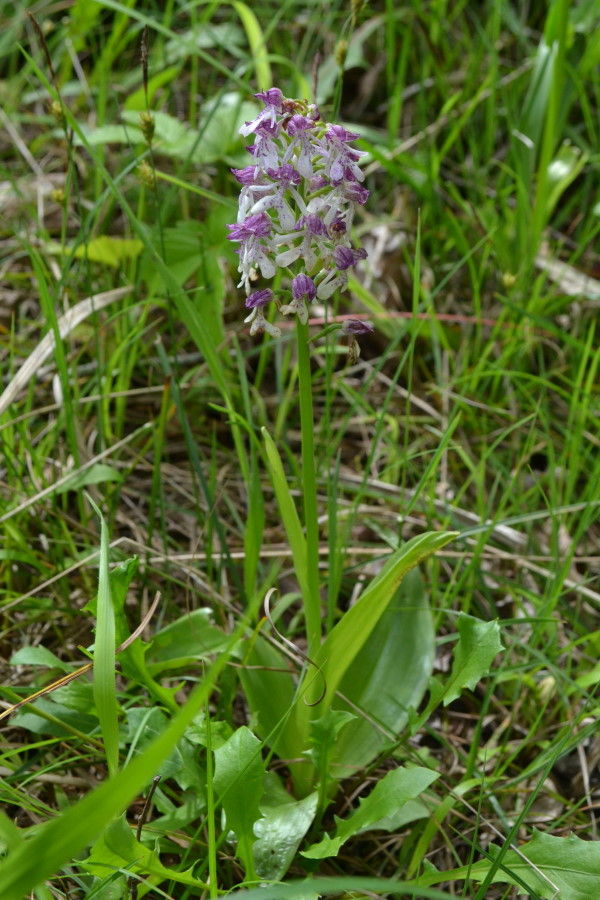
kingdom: Plantae
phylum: Tracheophyta
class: Liliopsida
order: Asparagales
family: Orchidaceae
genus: Orchis
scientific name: Orchis purpurea
